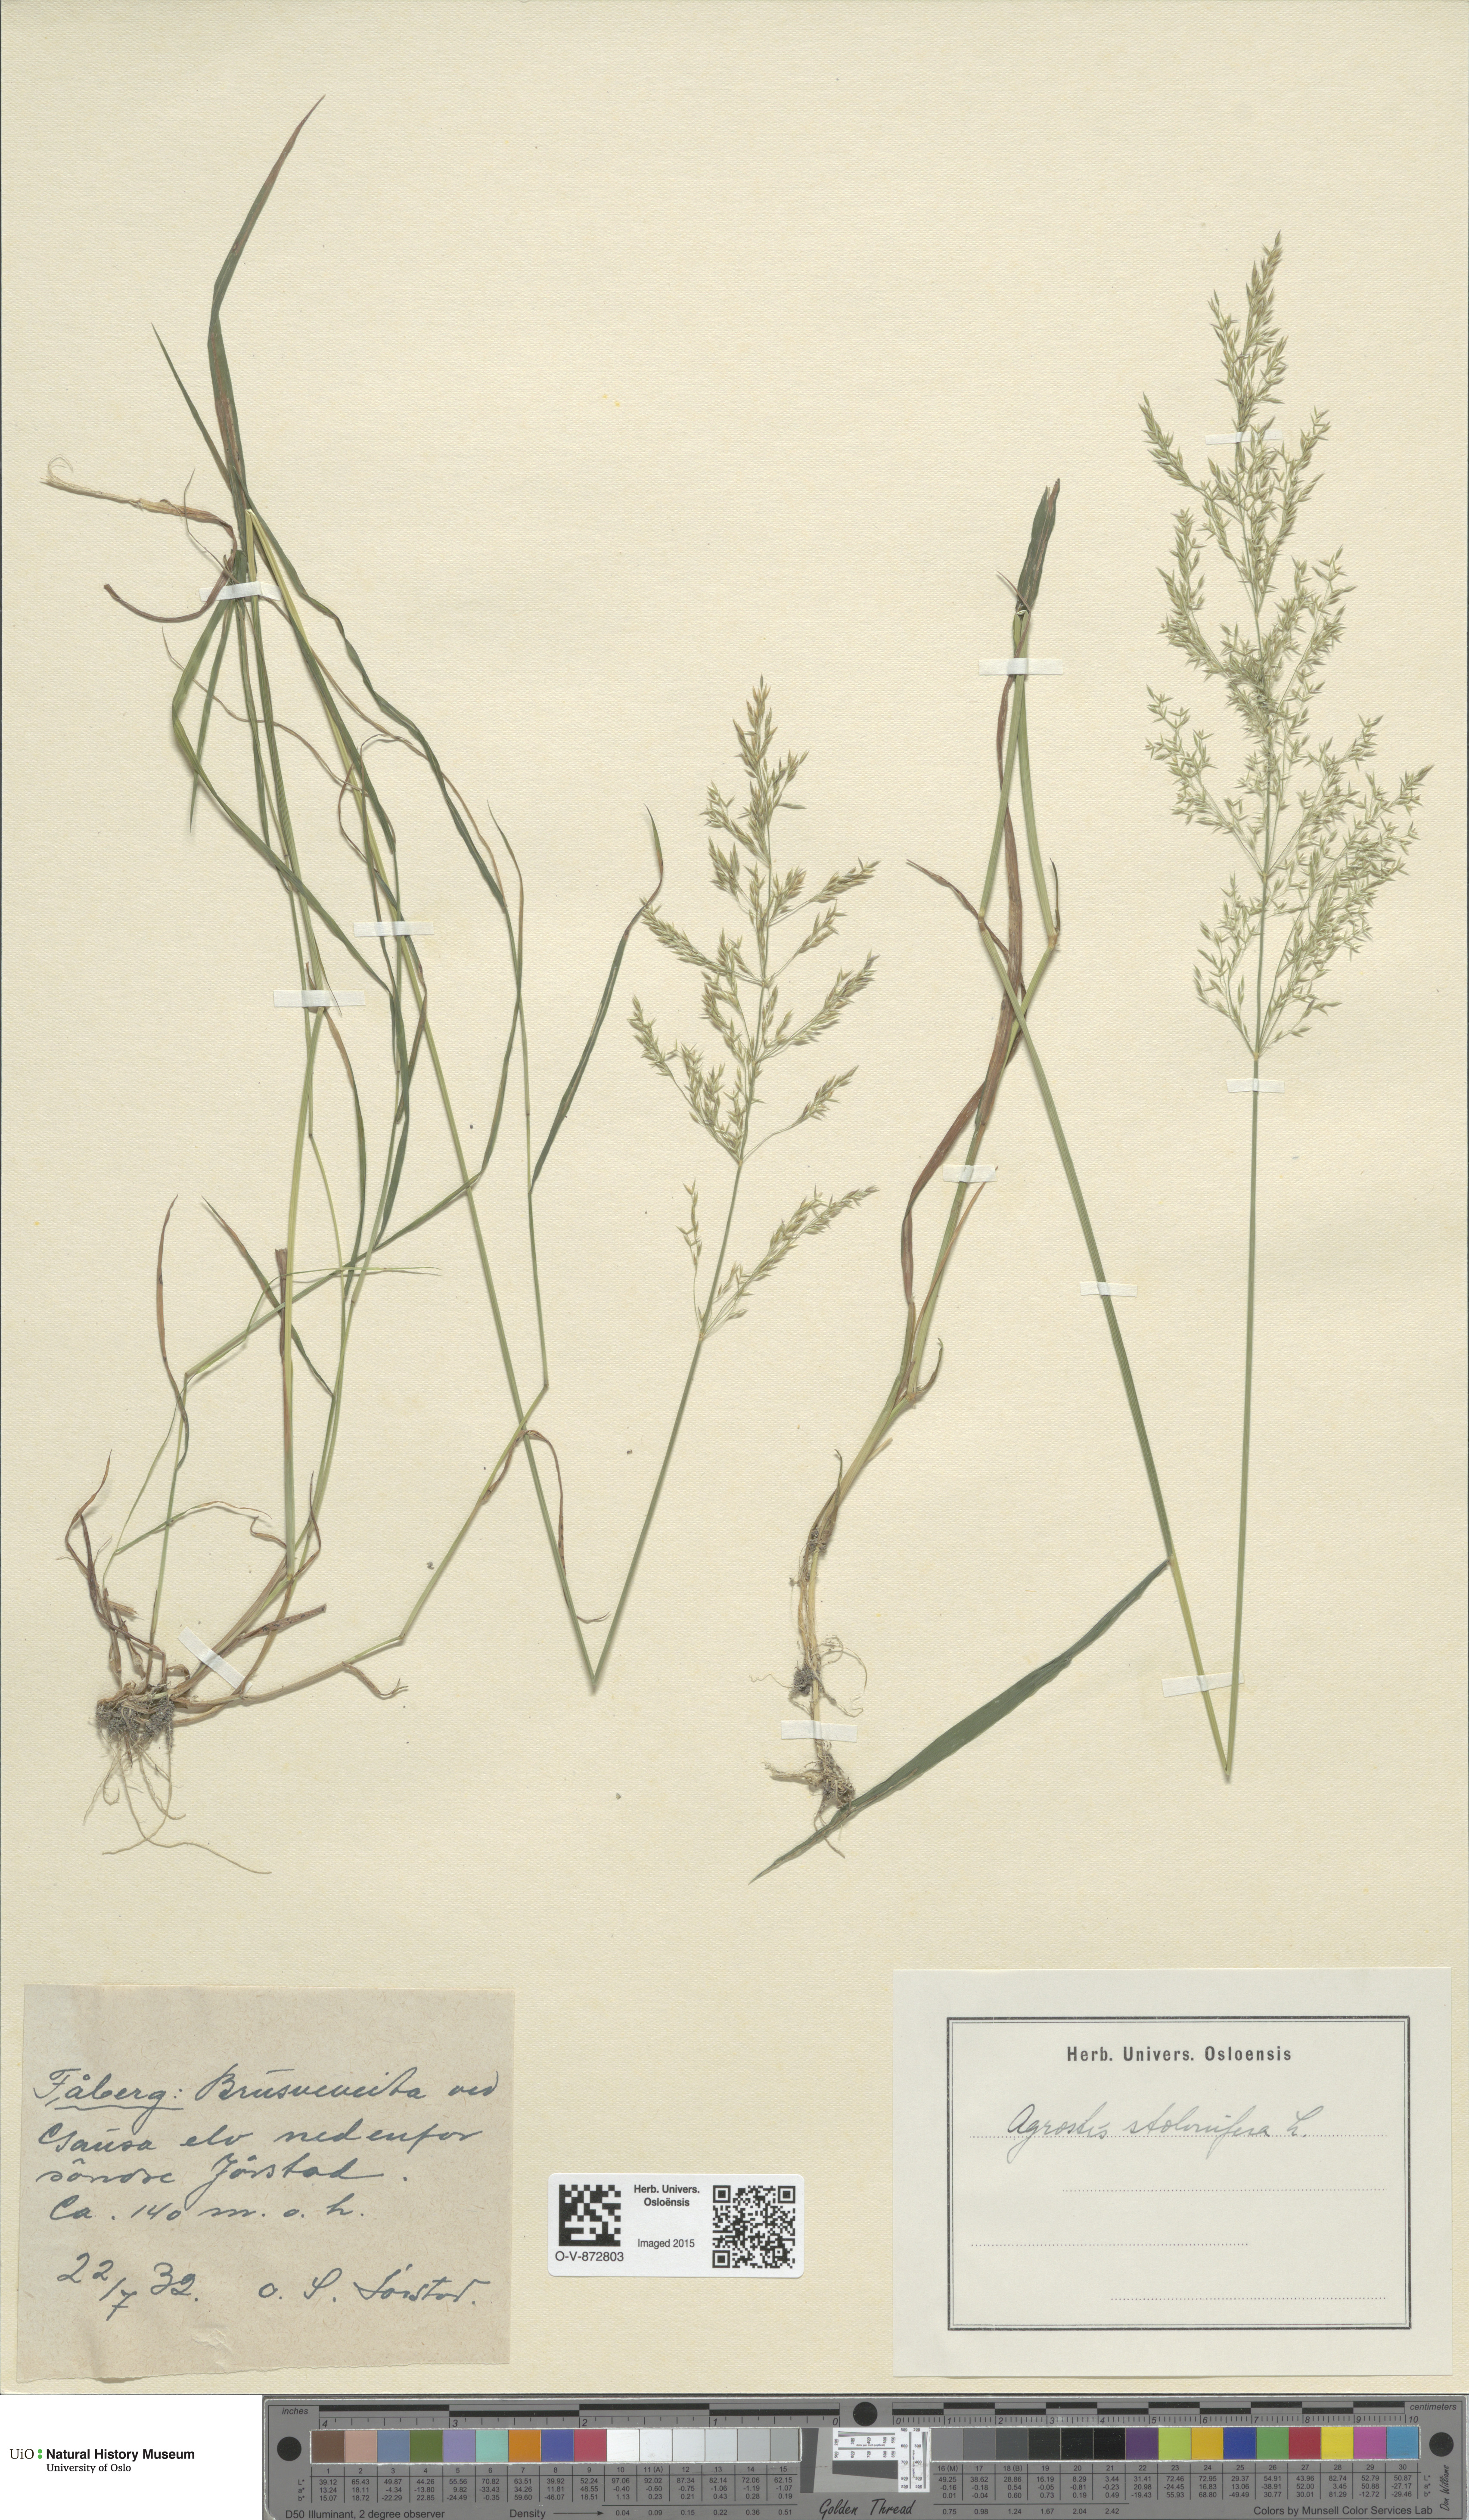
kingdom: Plantae
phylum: Tracheophyta
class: Liliopsida
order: Poales
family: Poaceae
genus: Agrostis
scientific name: Agrostis stolonifera
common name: Creeping bentgrass
